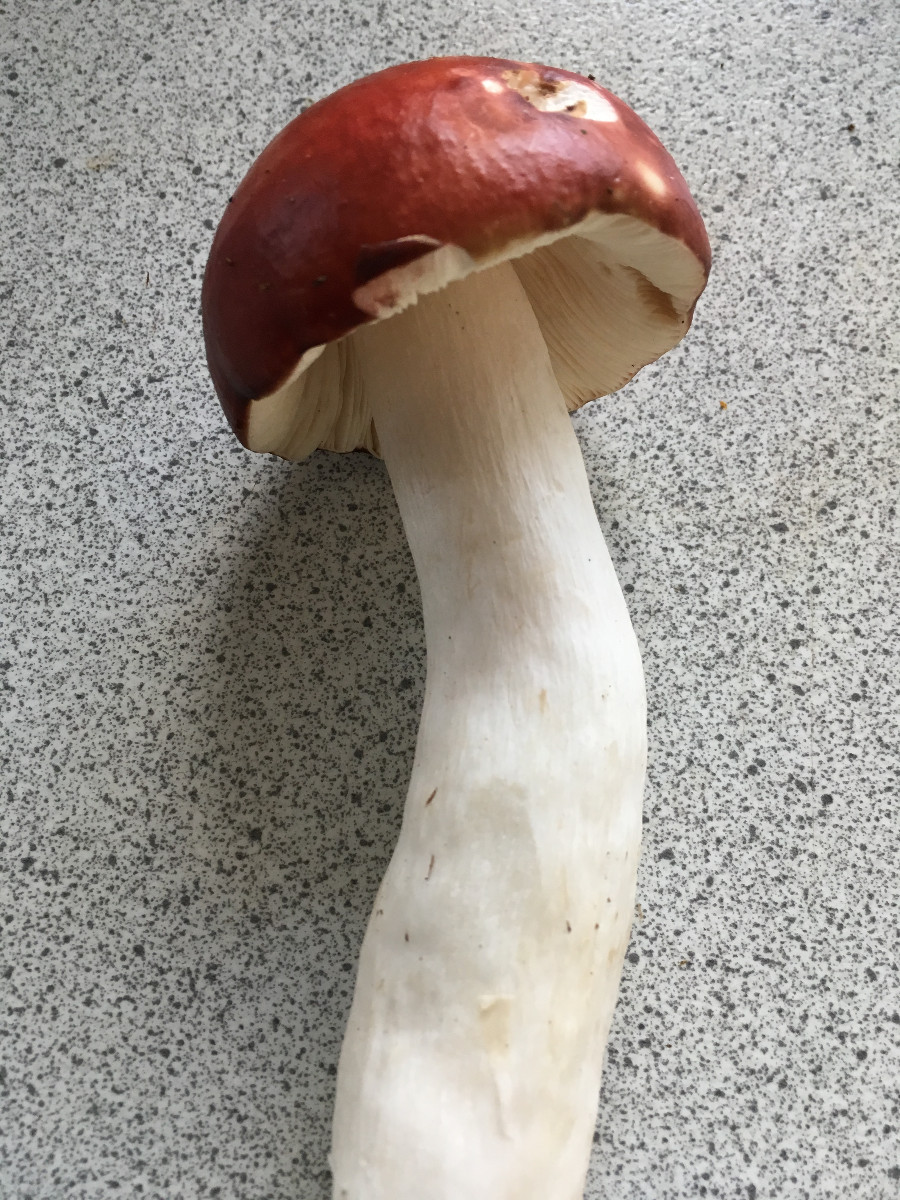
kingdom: Fungi
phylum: Basidiomycota
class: Agaricomycetes
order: Russulales
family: Russulaceae
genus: Russula
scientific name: Russula paludosa
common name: prægtig skørhat
